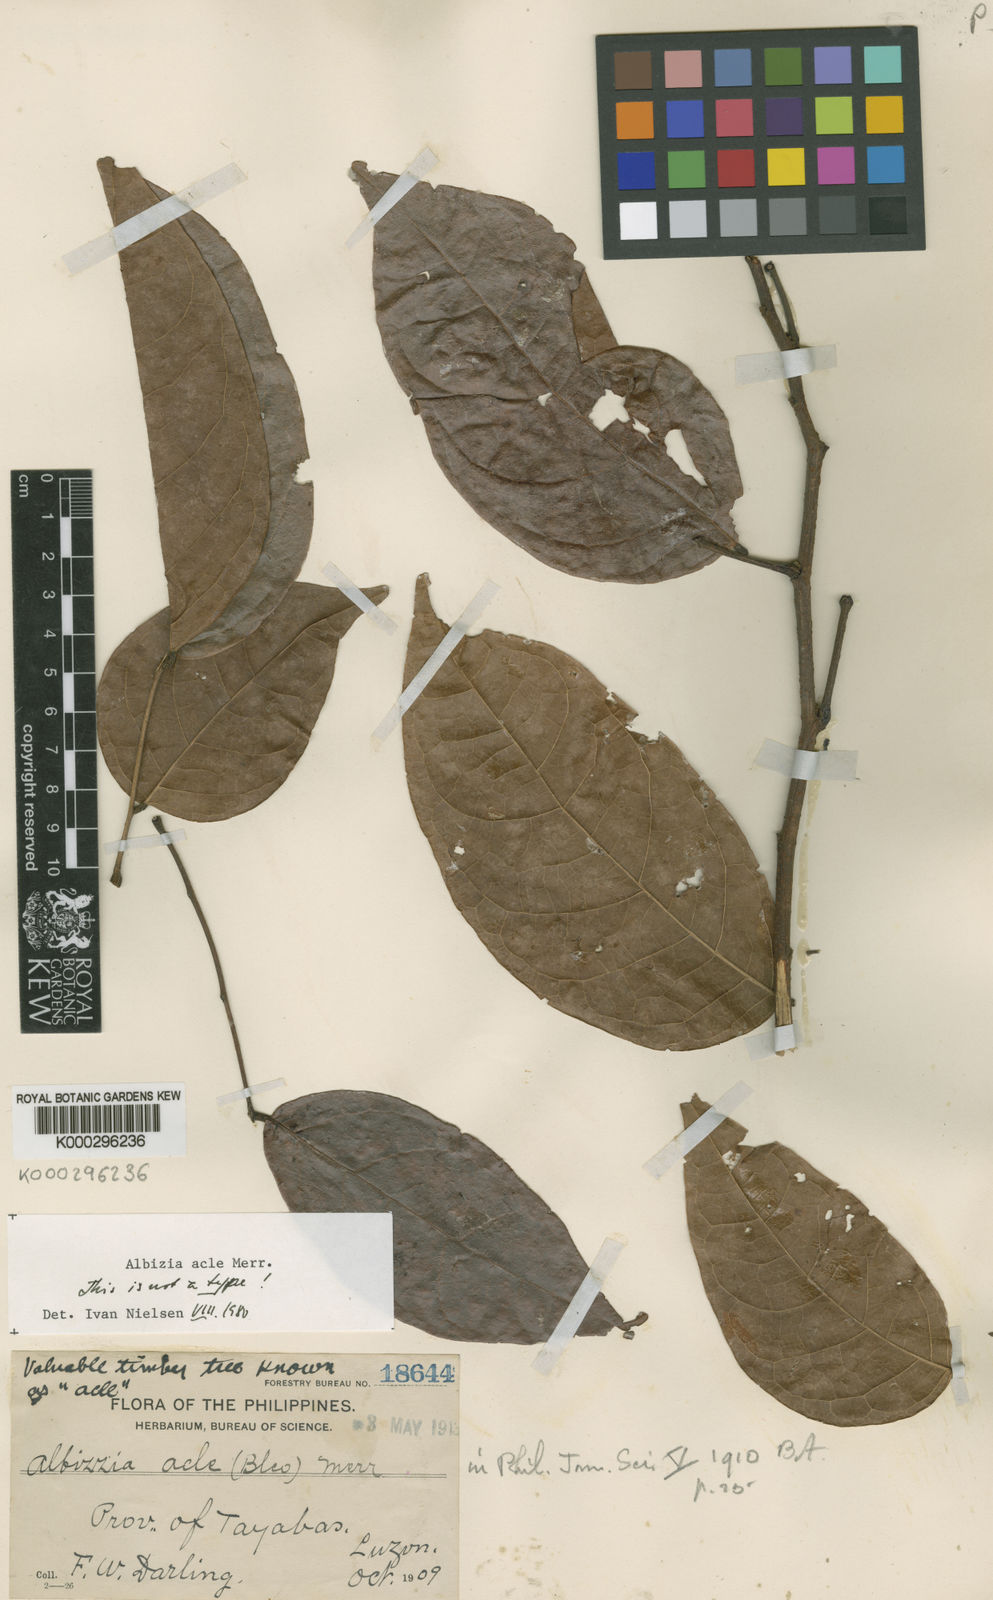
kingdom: Plantae
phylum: Tracheophyta
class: Magnoliopsida
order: Fabales
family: Fabaceae
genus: Albizia
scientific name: Albizia acle
